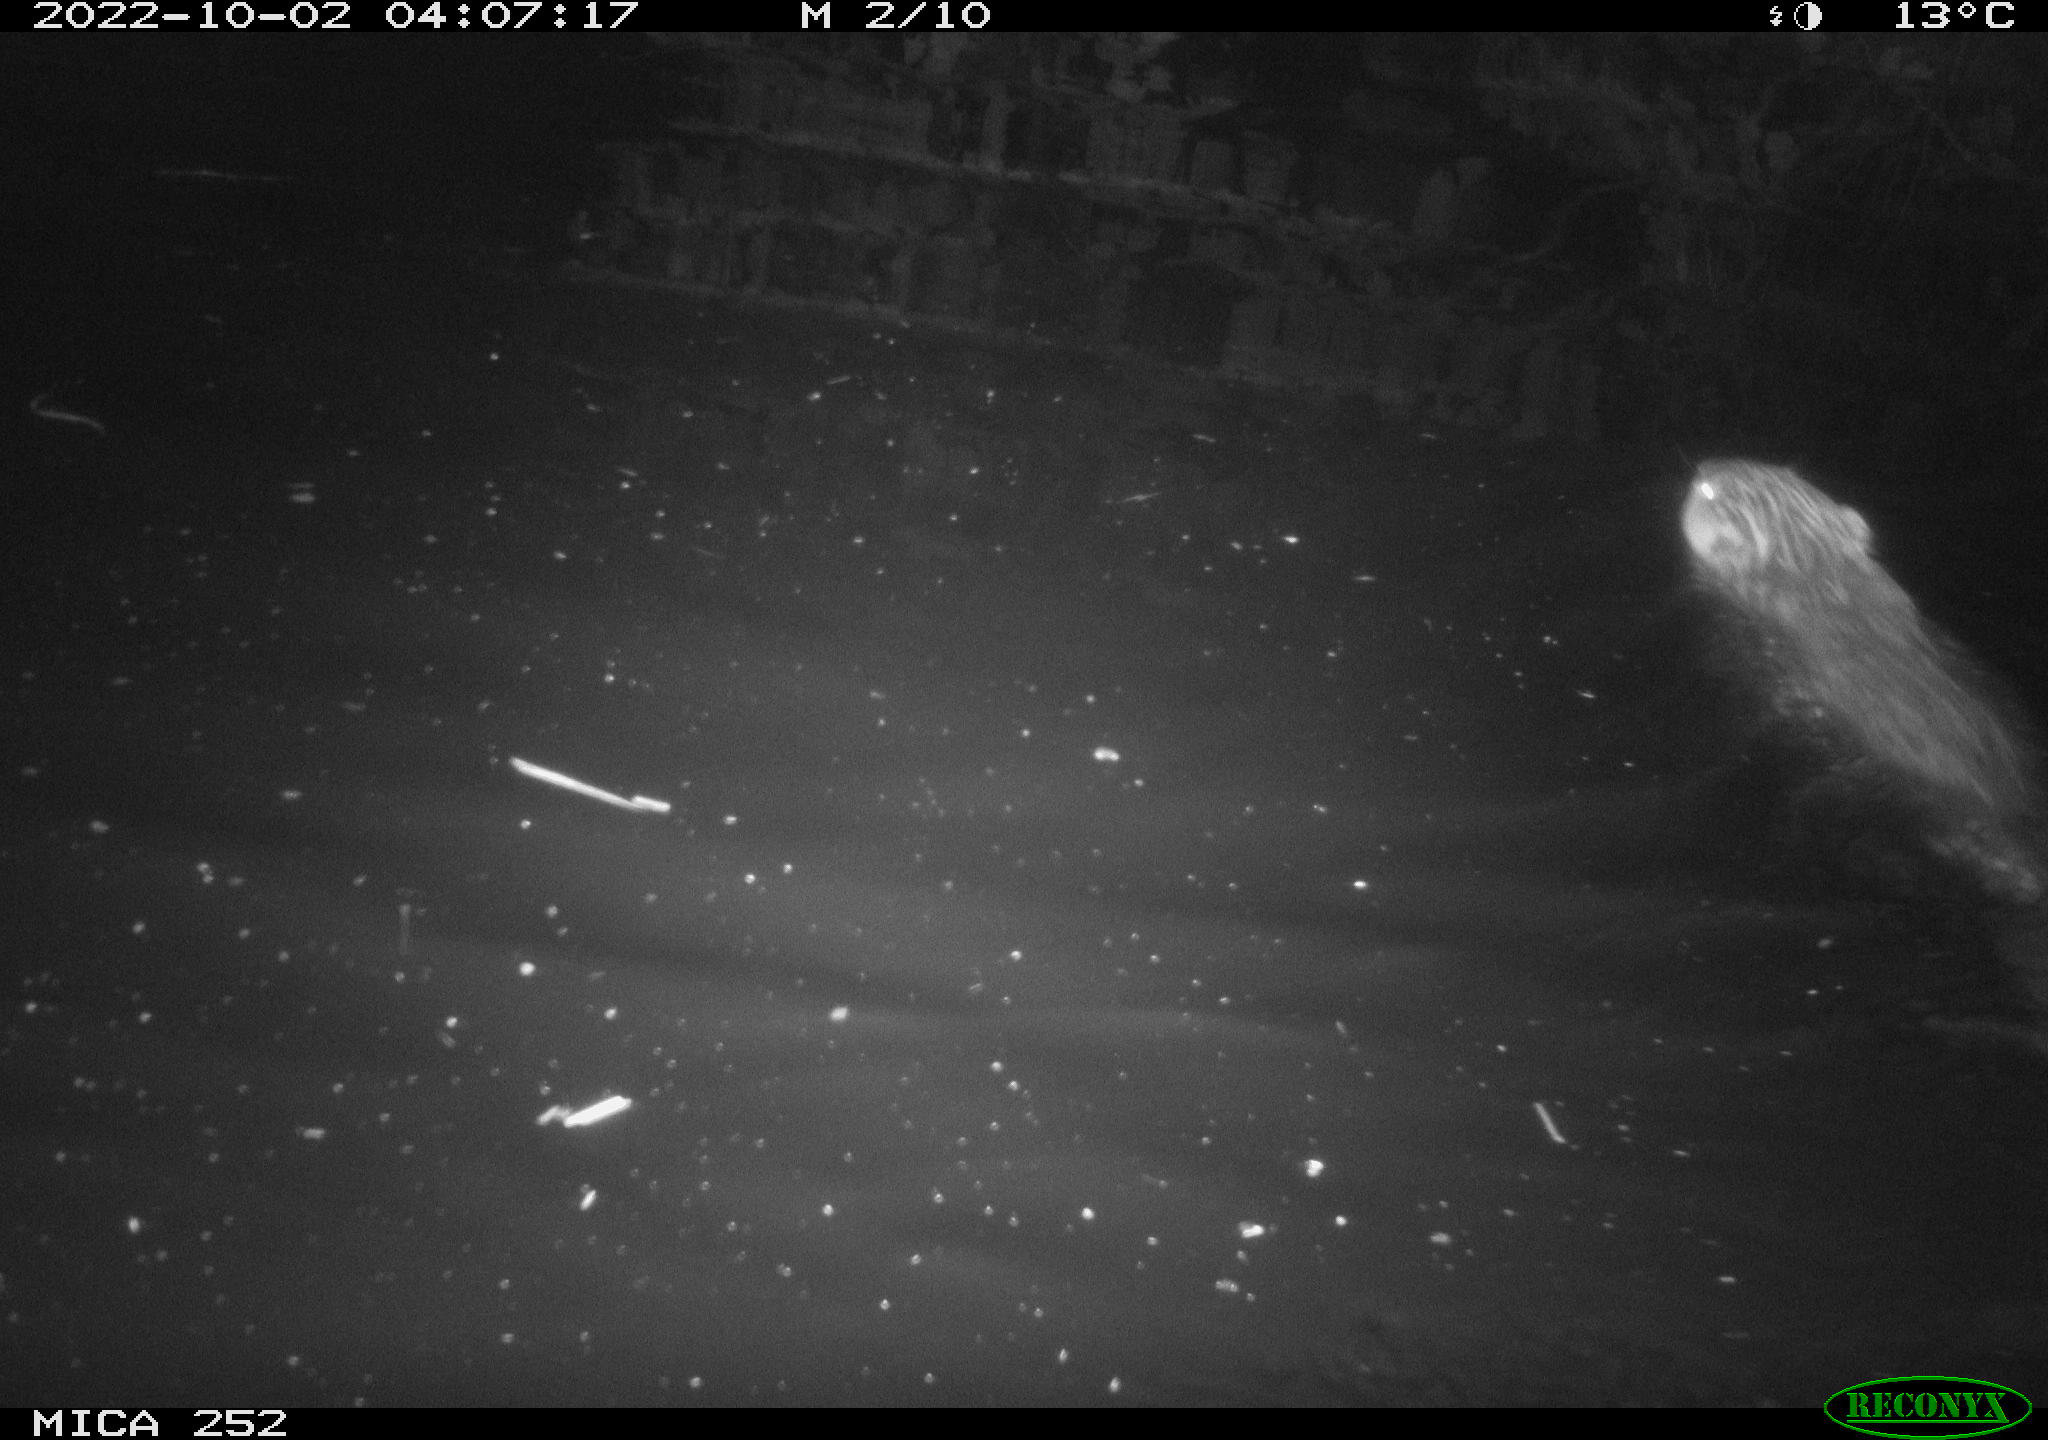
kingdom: Animalia
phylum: Chordata
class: Mammalia
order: Rodentia
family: Castoridae
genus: Castor
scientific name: Castor fiber
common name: Eurasian beaver
